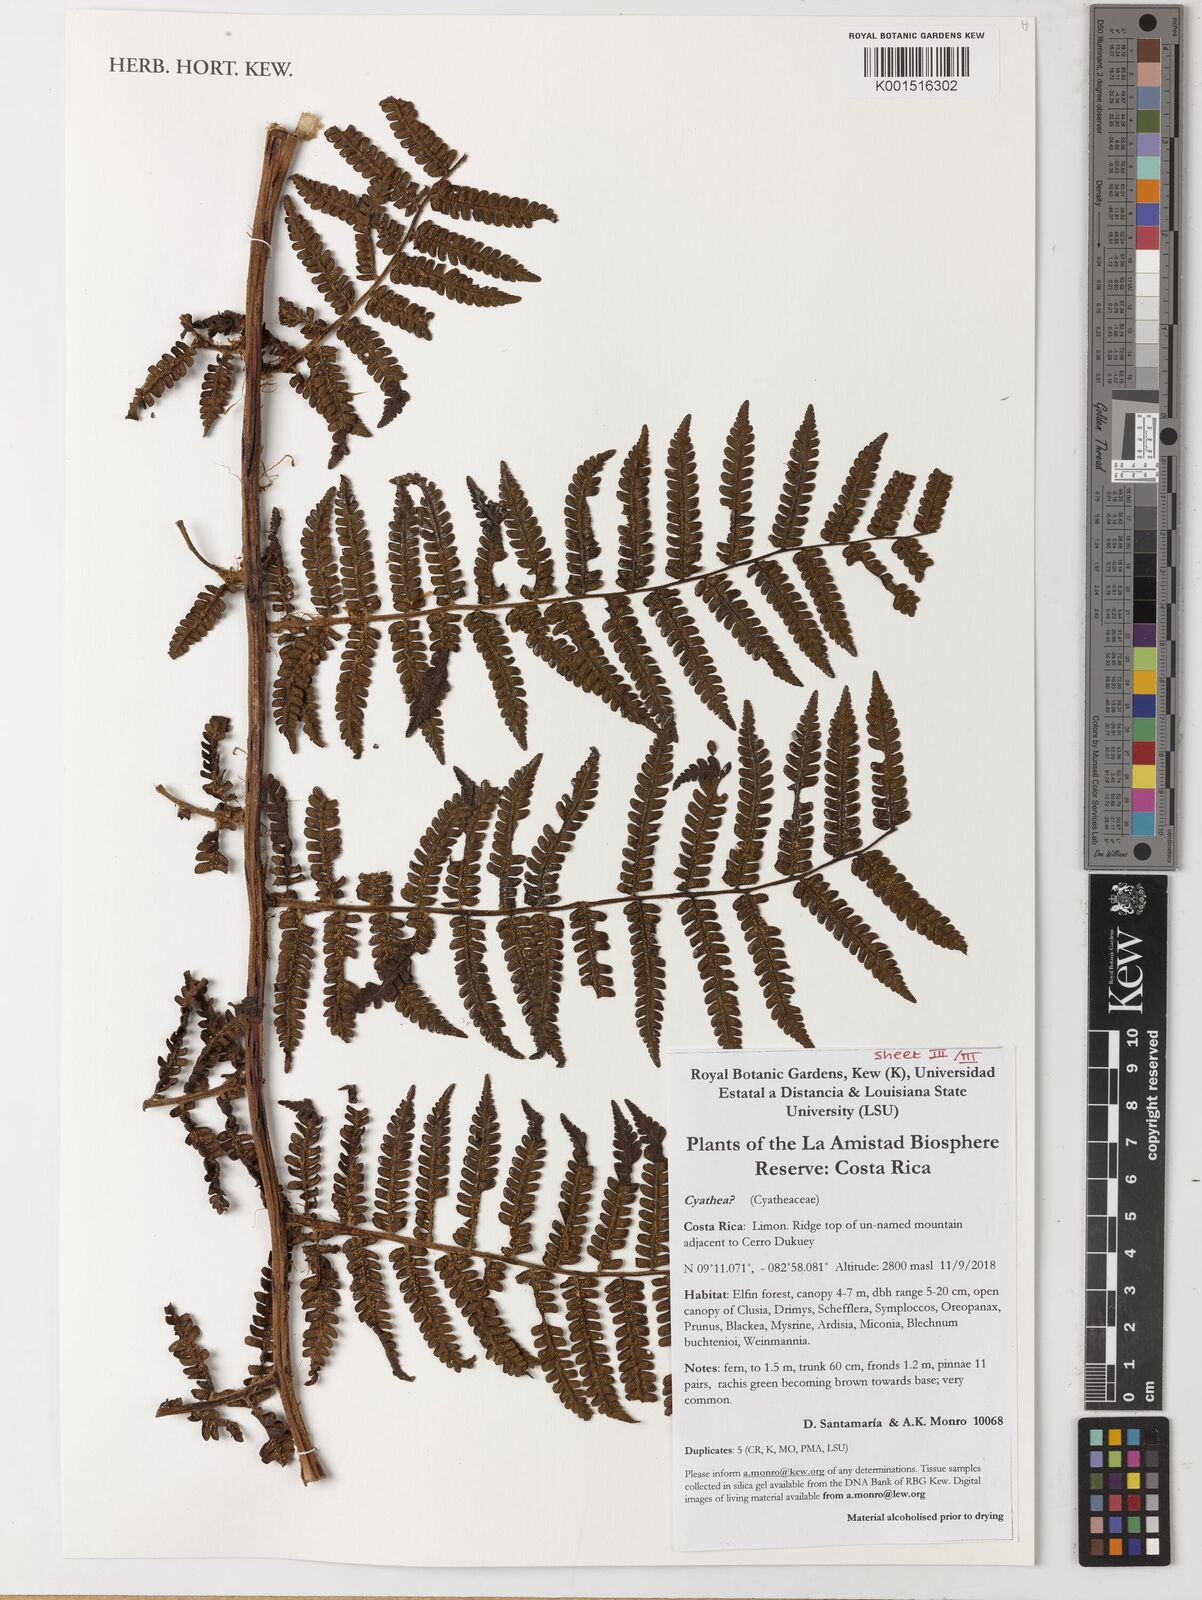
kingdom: Plantae
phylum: Tracheophyta
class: Polypodiopsida
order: Cyatheales
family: Cyatheaceae
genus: Cyathea
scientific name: Cyathea
